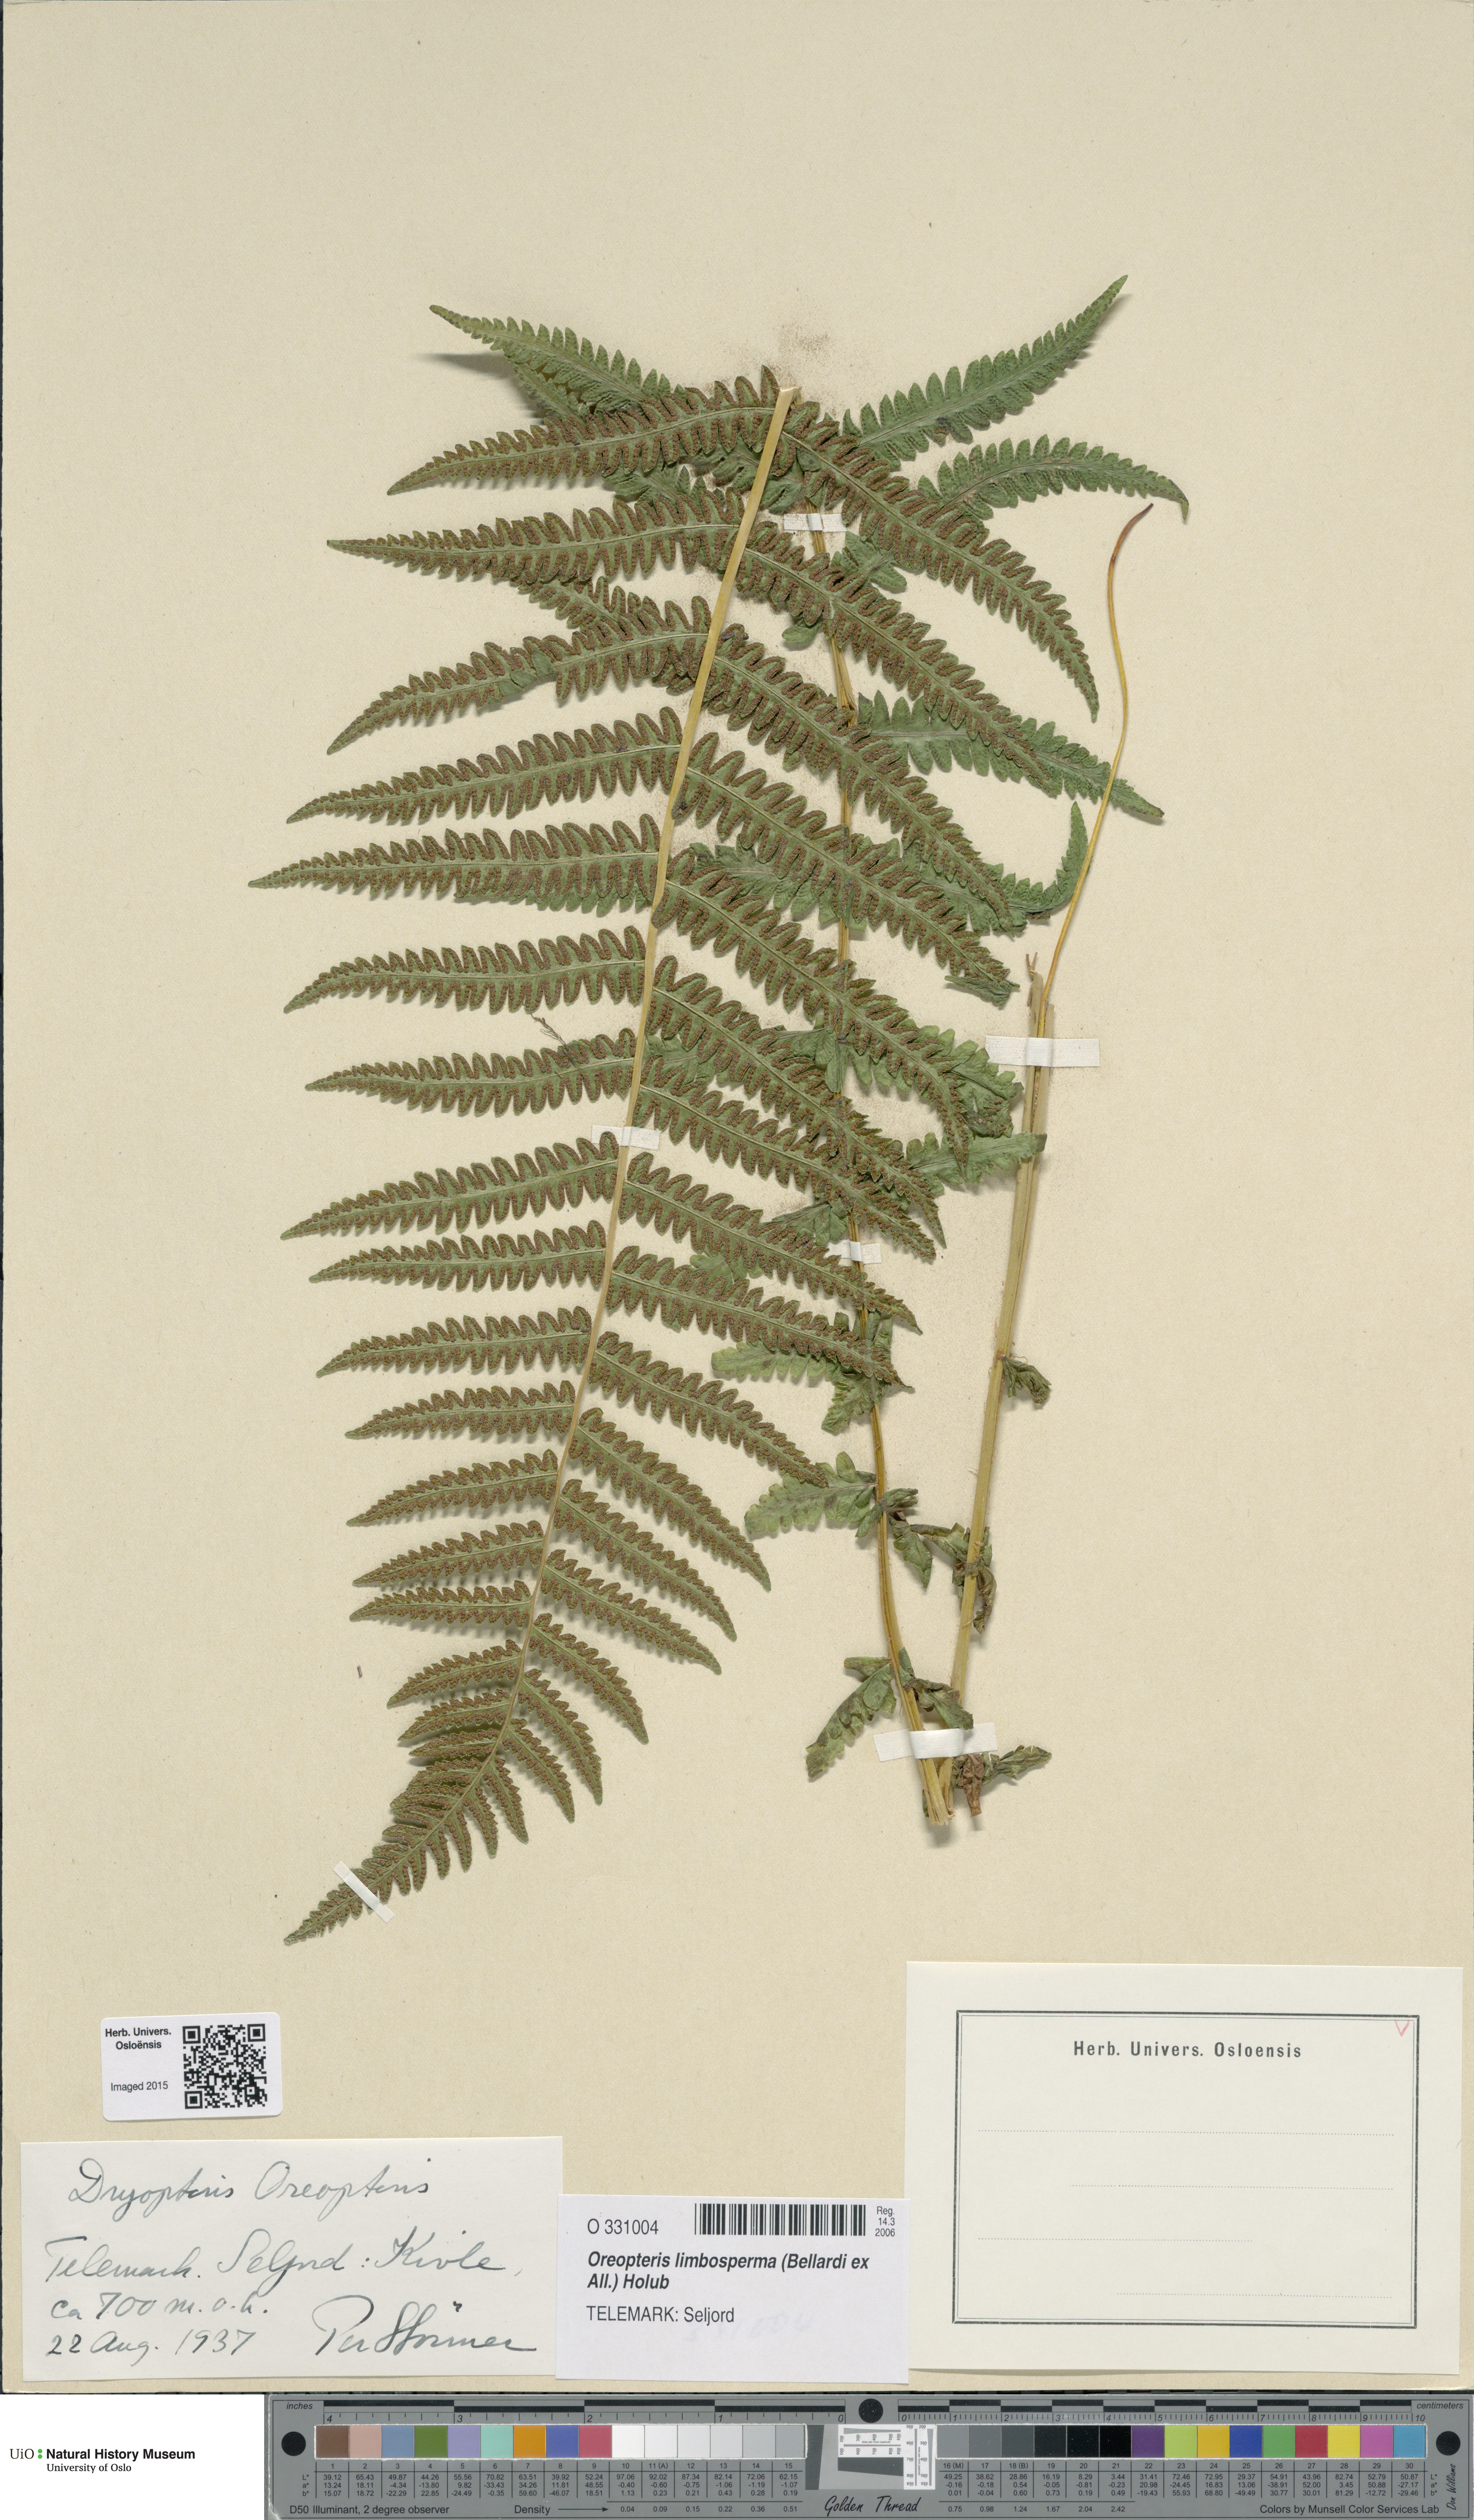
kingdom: Plantae
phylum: Tracheophyta
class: Polypodiopsida
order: Polypodiales
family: Thelypteridaceae
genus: Oreopteris
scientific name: Oreopteris limbosperma
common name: Lemon-scented fern
